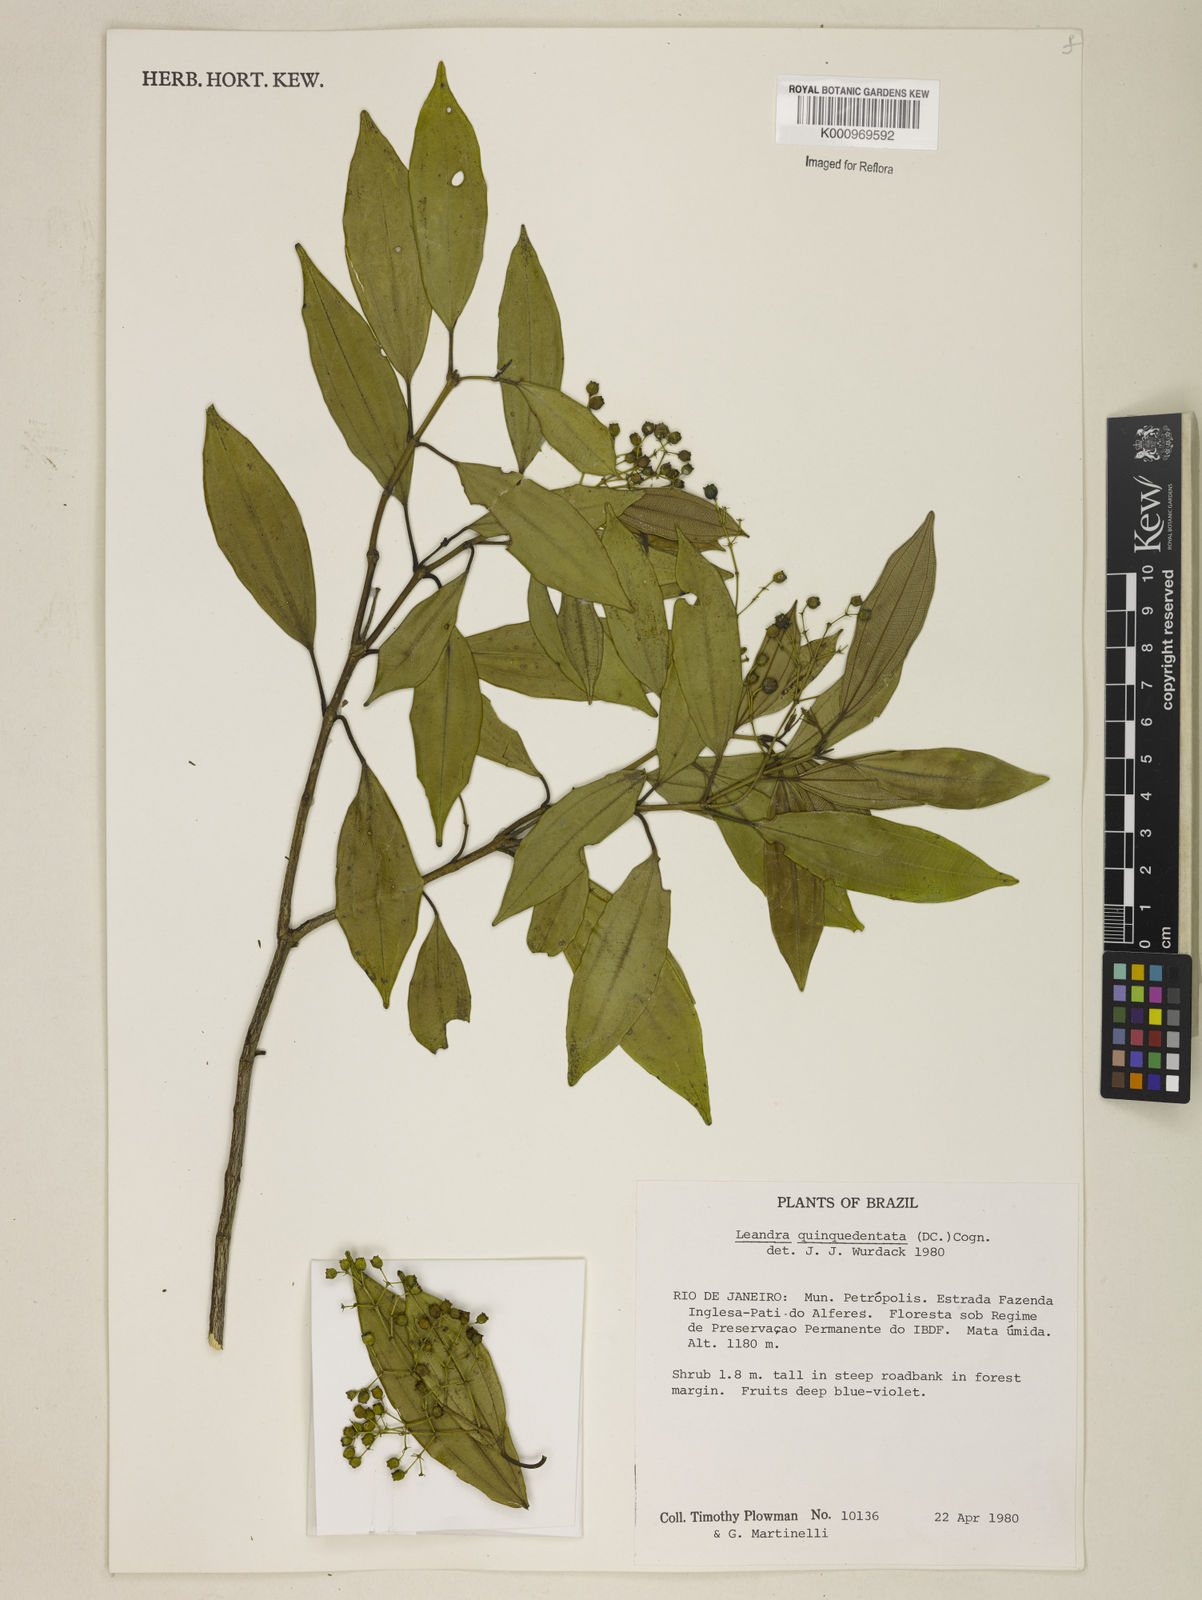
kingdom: Plantae
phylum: Tracheophyta
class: Magnoliopsida
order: Myrtales
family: Melastomataceae
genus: Miconia
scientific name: Miconia quinquedentata
